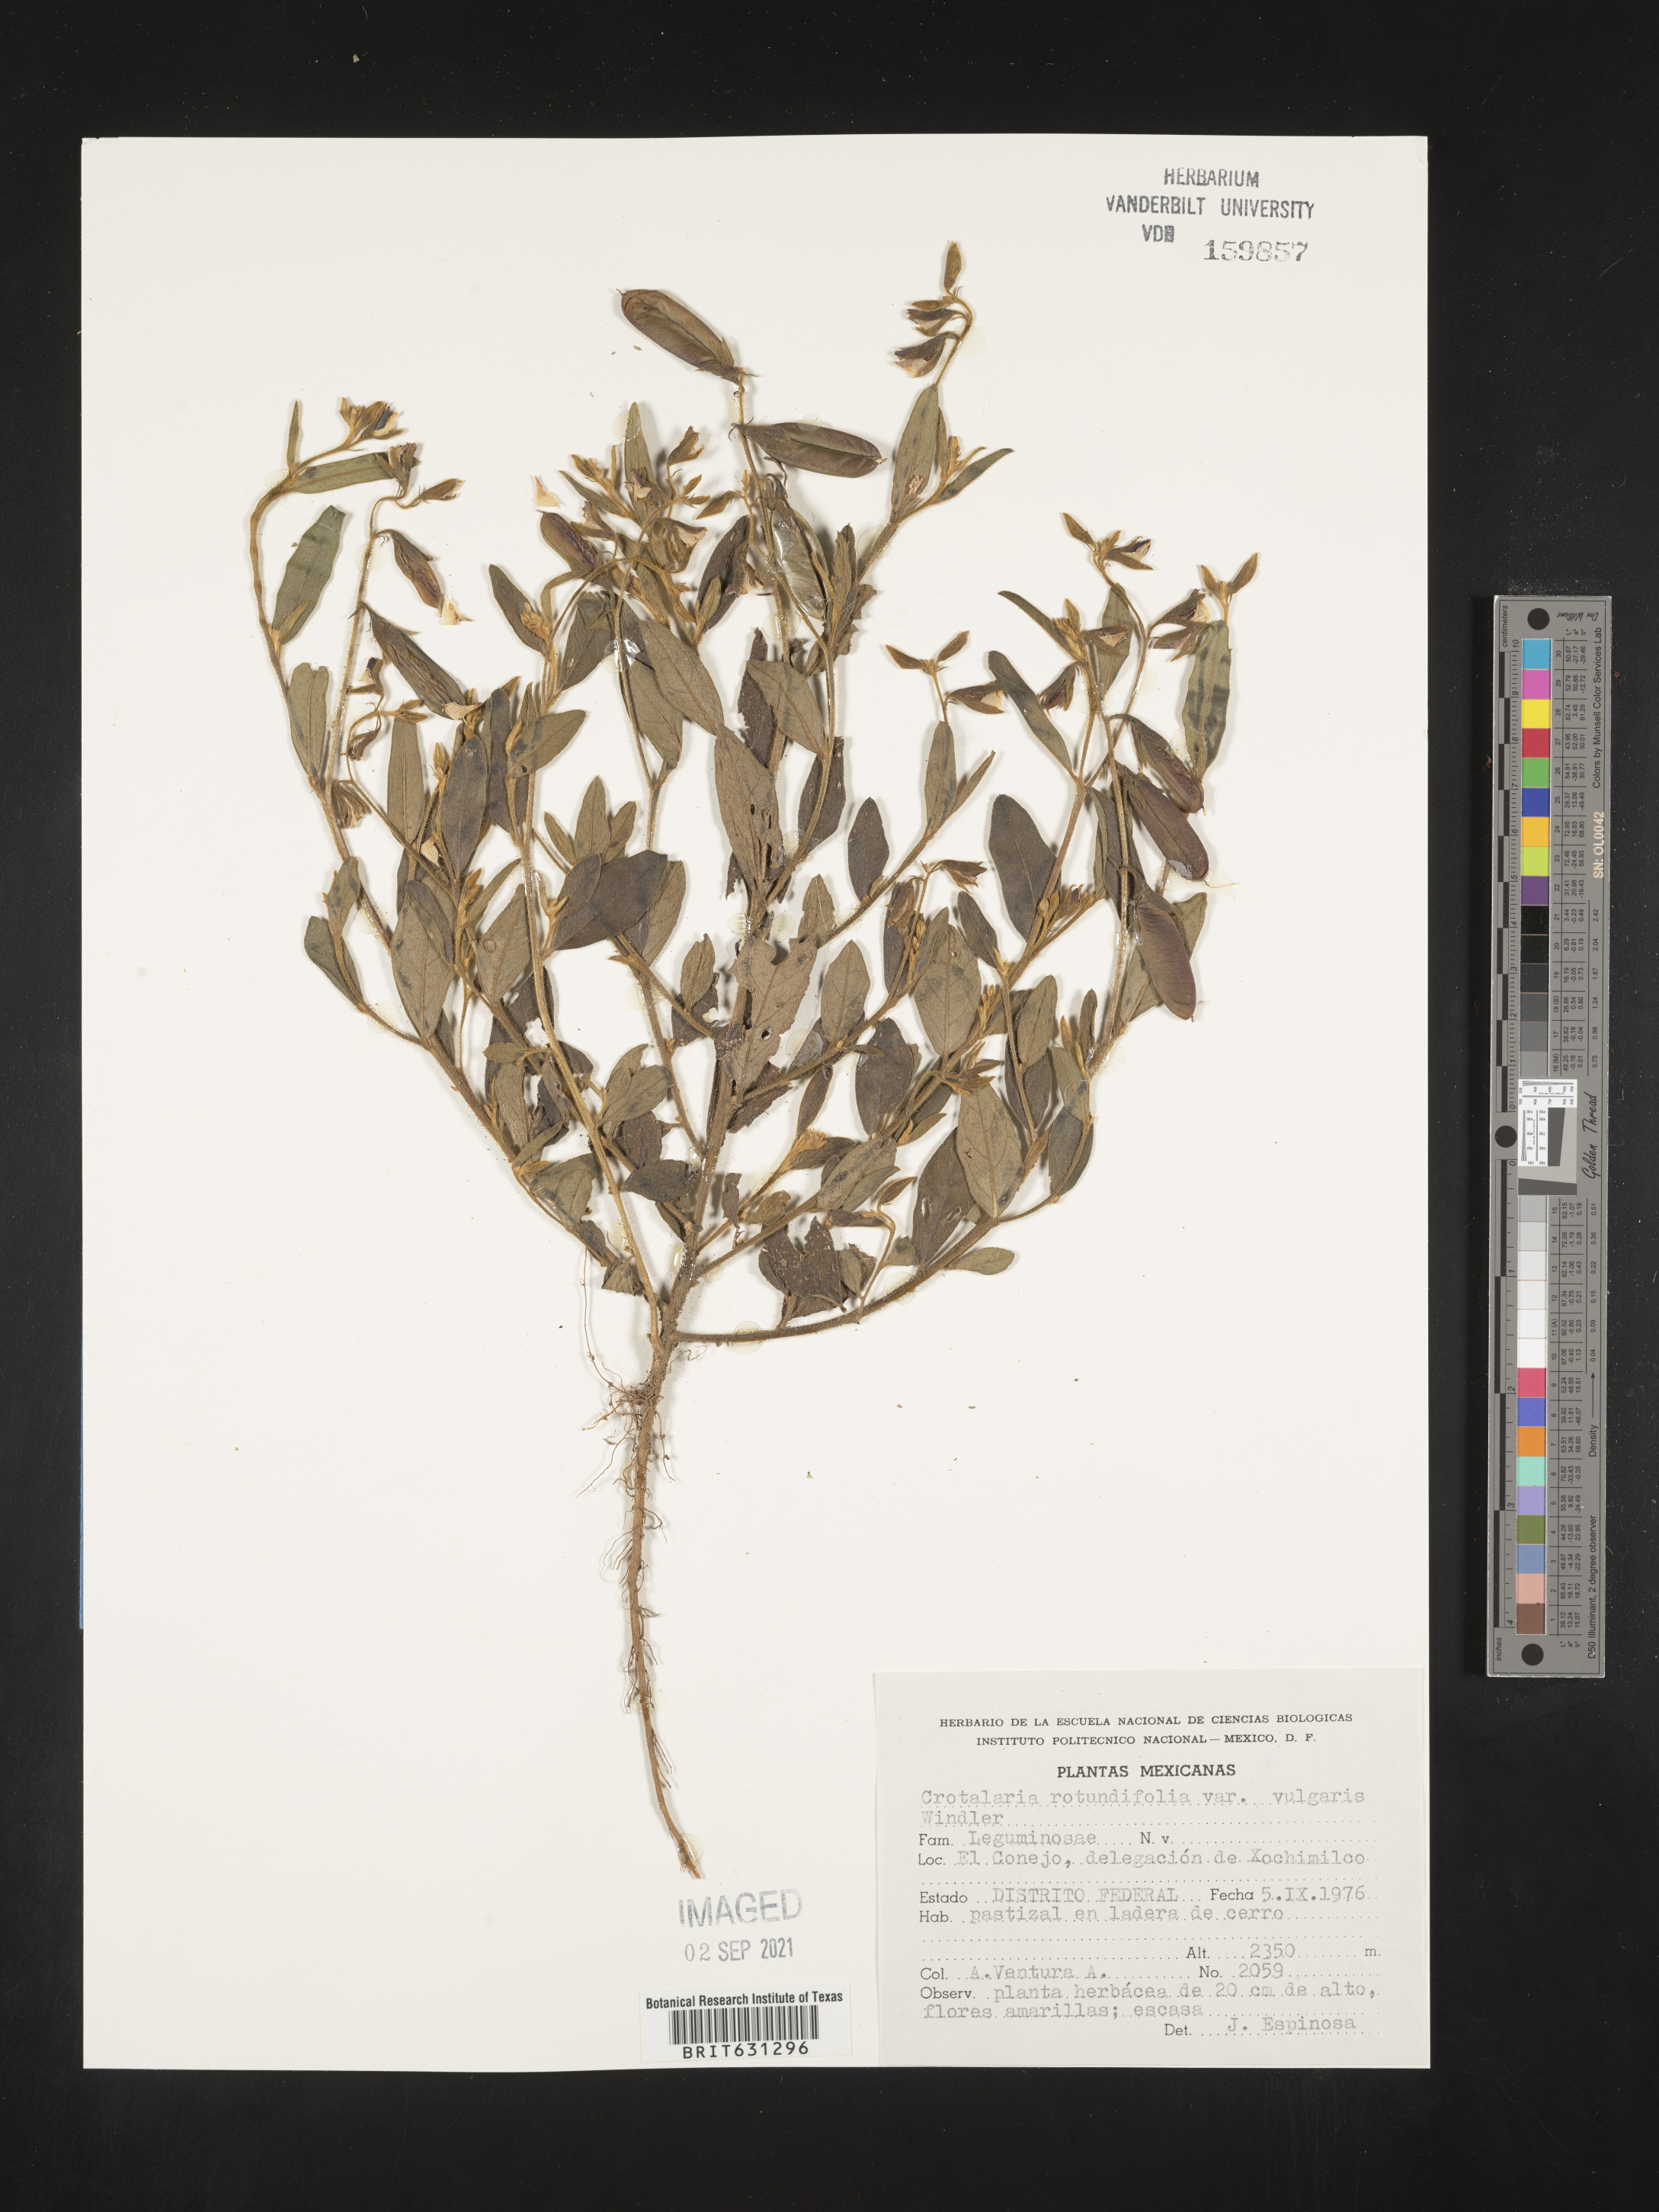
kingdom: Plantae
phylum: Tracheophyta
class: Magnoliopsida
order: Fabales
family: Fabaceae
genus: Crotalaria
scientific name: Crotalaria rotundifolia
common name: Prostrate rattlebox
